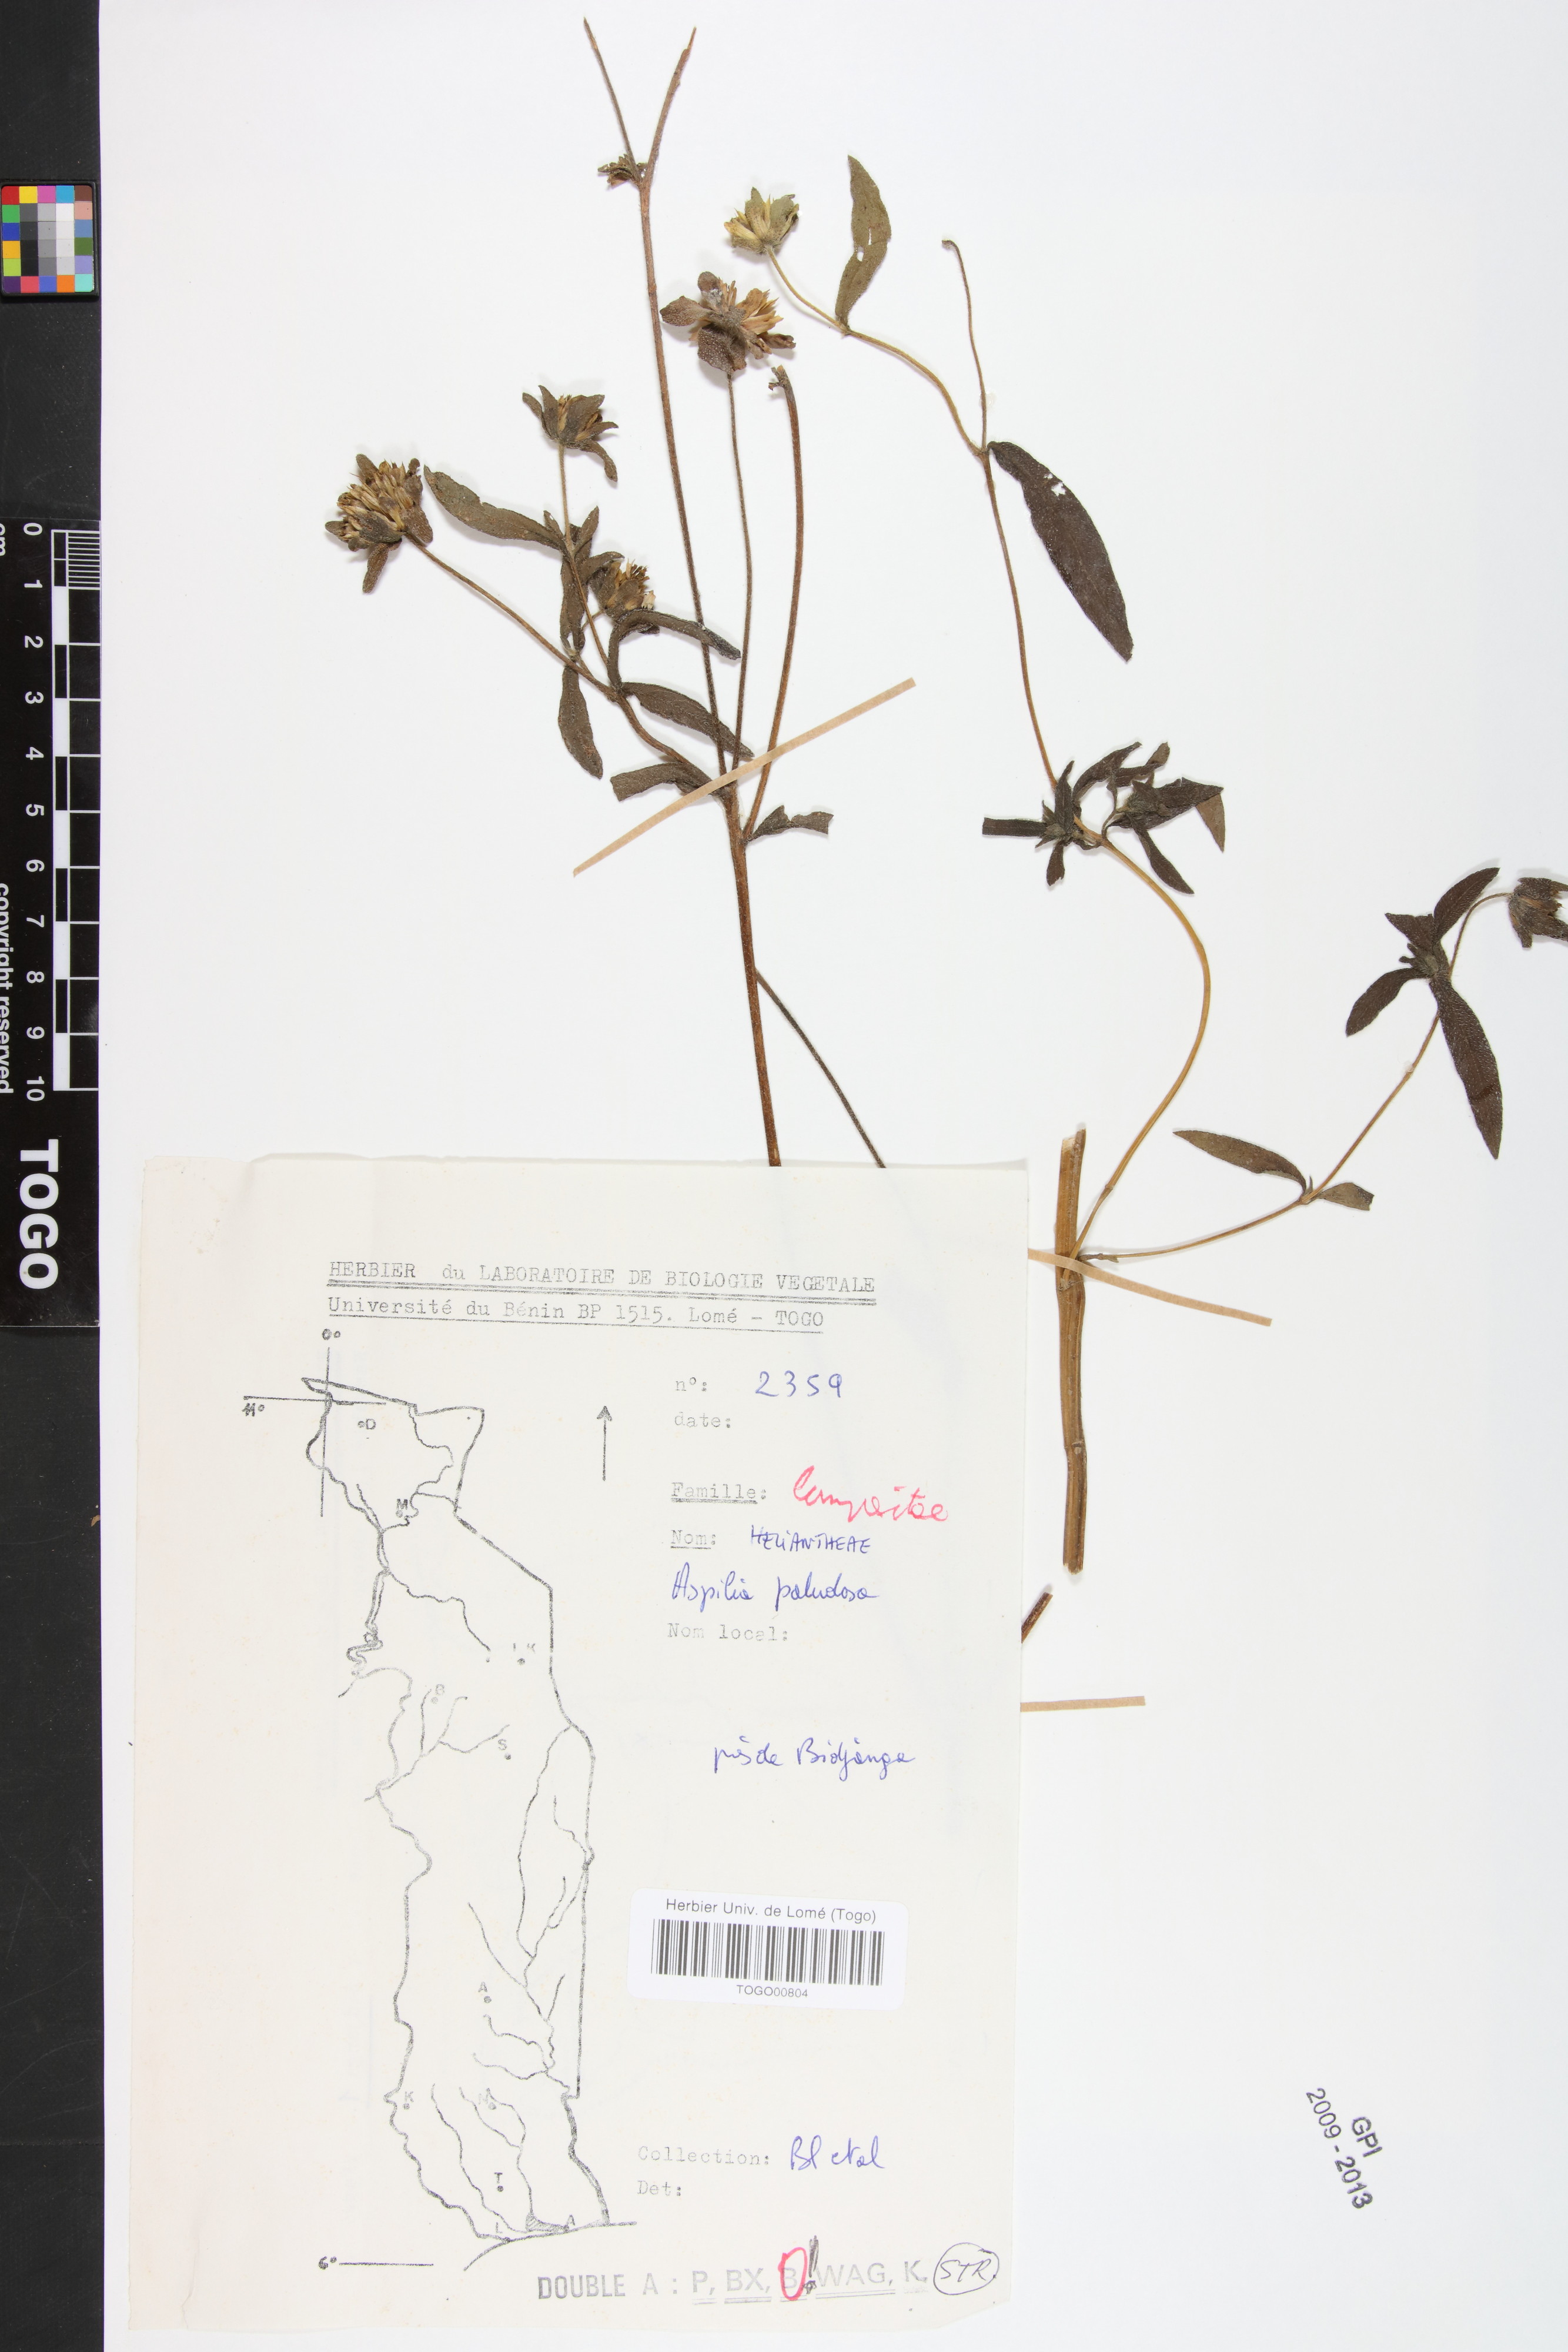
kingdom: Plantae
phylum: Tracheophyta
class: Magnoliopsida
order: Asterales
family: Asteraceae
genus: Aspilia
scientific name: Aspilia helianthoides
